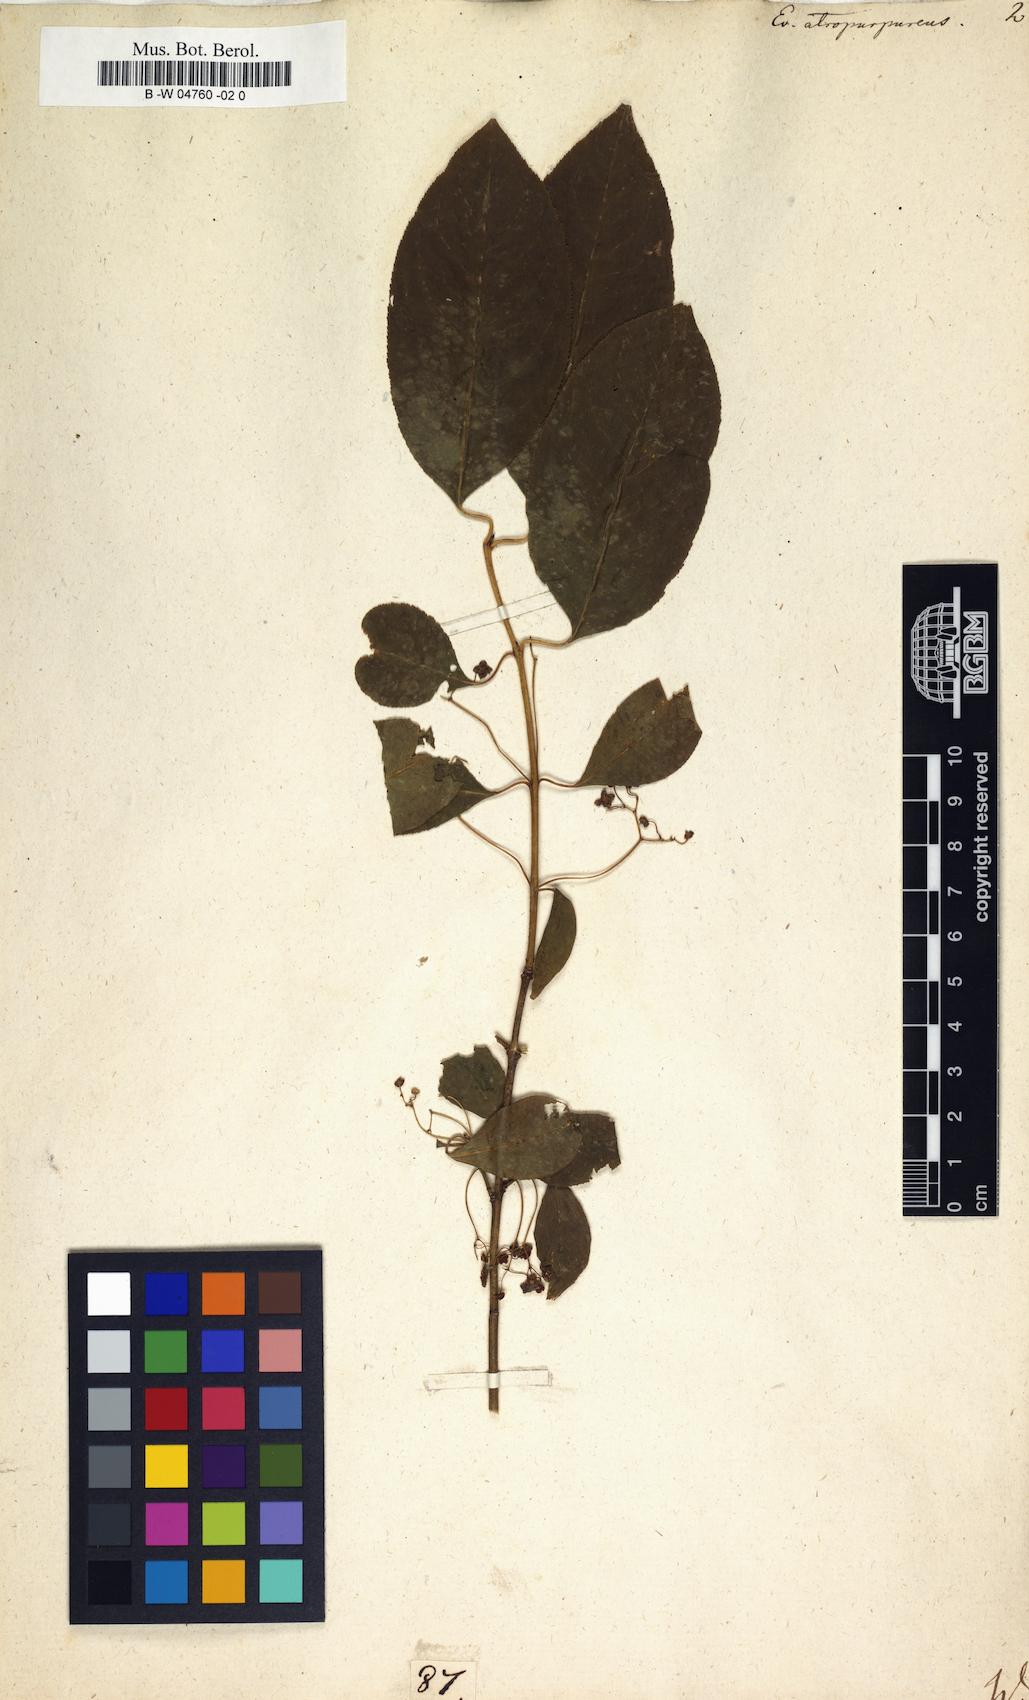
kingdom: Plantae
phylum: Tracheophyta
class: Magnoliopsida
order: Celastrales
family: Celastraceae
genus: Euonymus
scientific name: Euonymus atropurpureus
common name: Eastern wahoo
